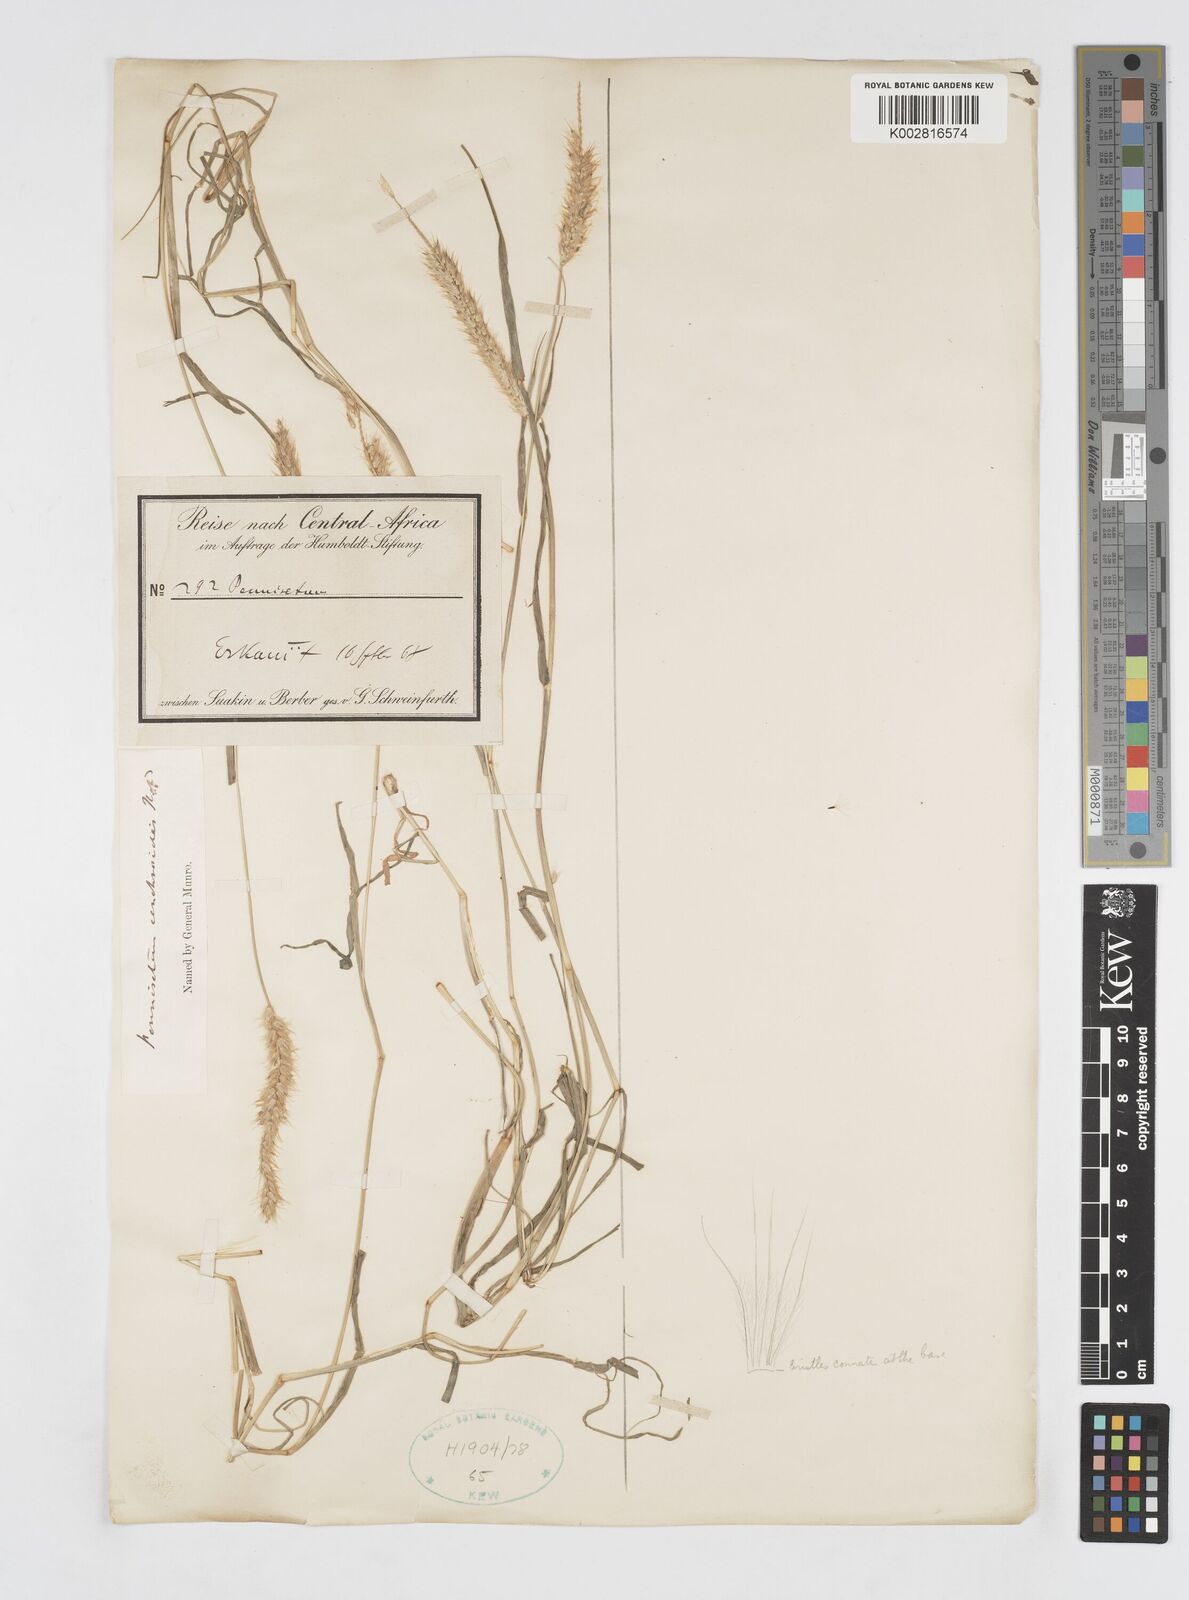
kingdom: Plantae
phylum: Tracheophyta
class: Liliopsida
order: Poales
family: Poaceae
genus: Cenchrus
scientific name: Cenchrus ciliaris
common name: Buffelgrass
